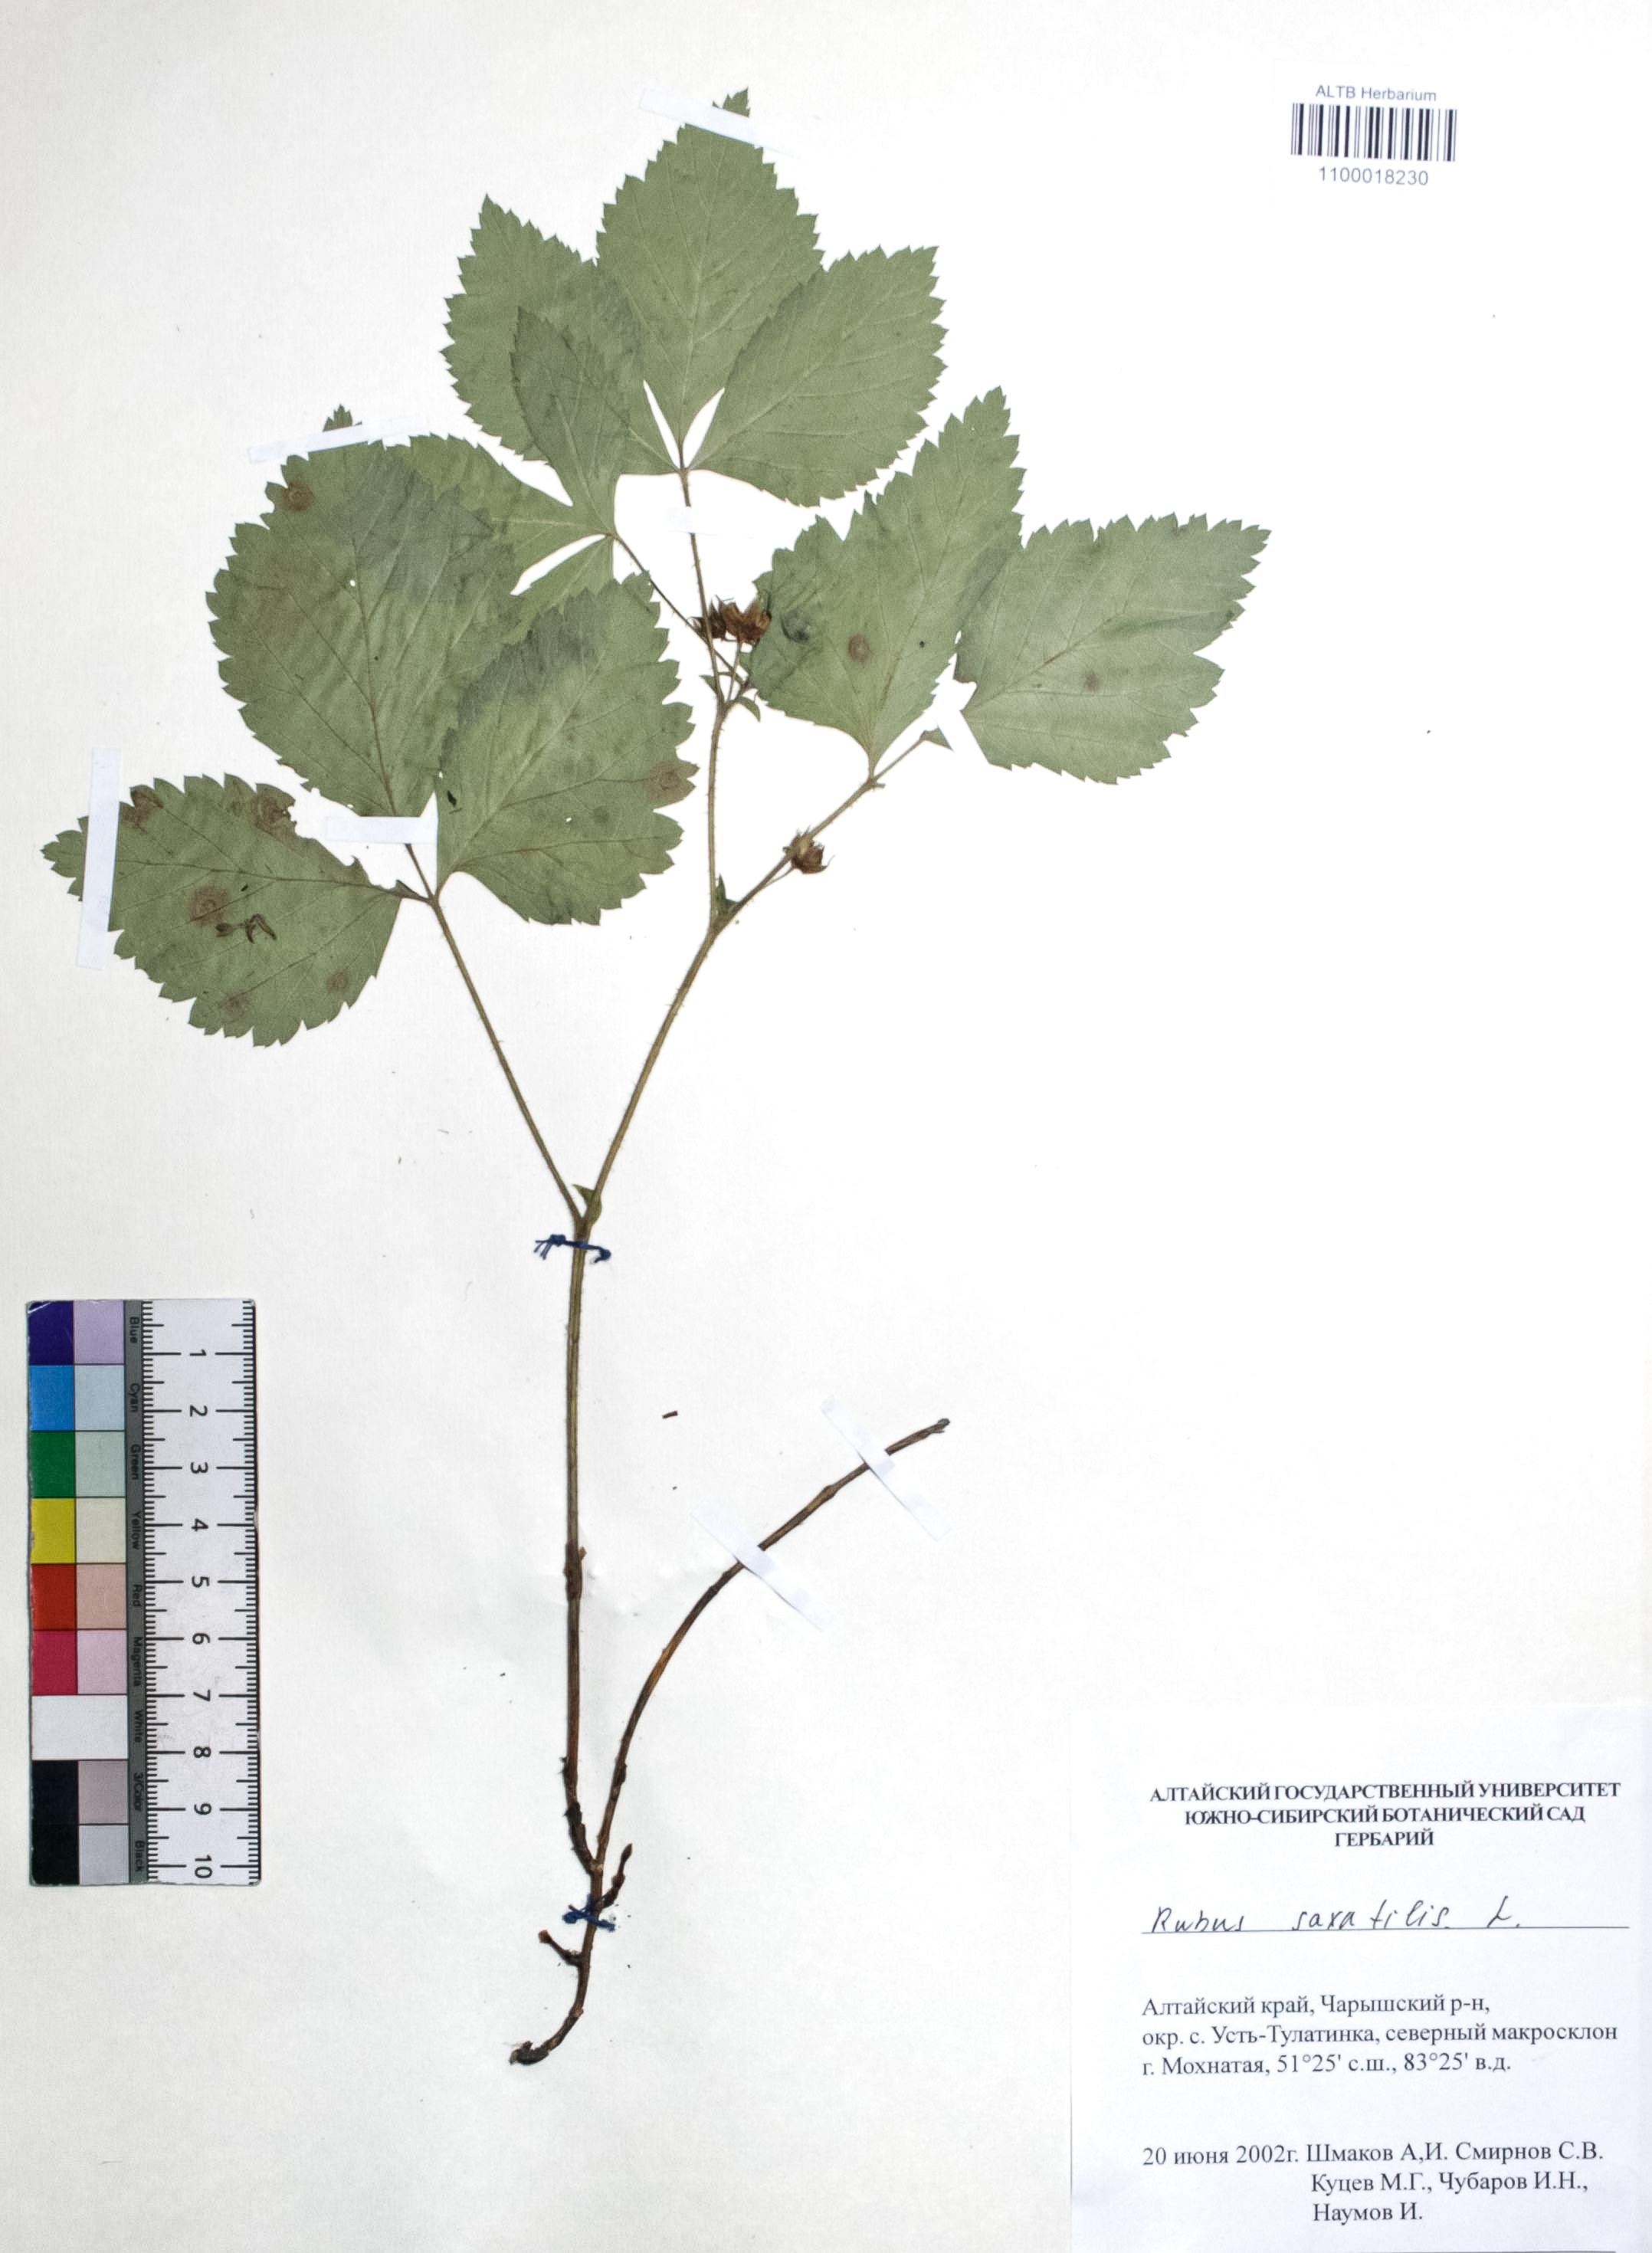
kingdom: Plantae
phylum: Tracheophyta
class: Magnoliopsida
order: Rosales
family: Rosaceae
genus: Rubus
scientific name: Rubus saxatilis
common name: Stone bramble
